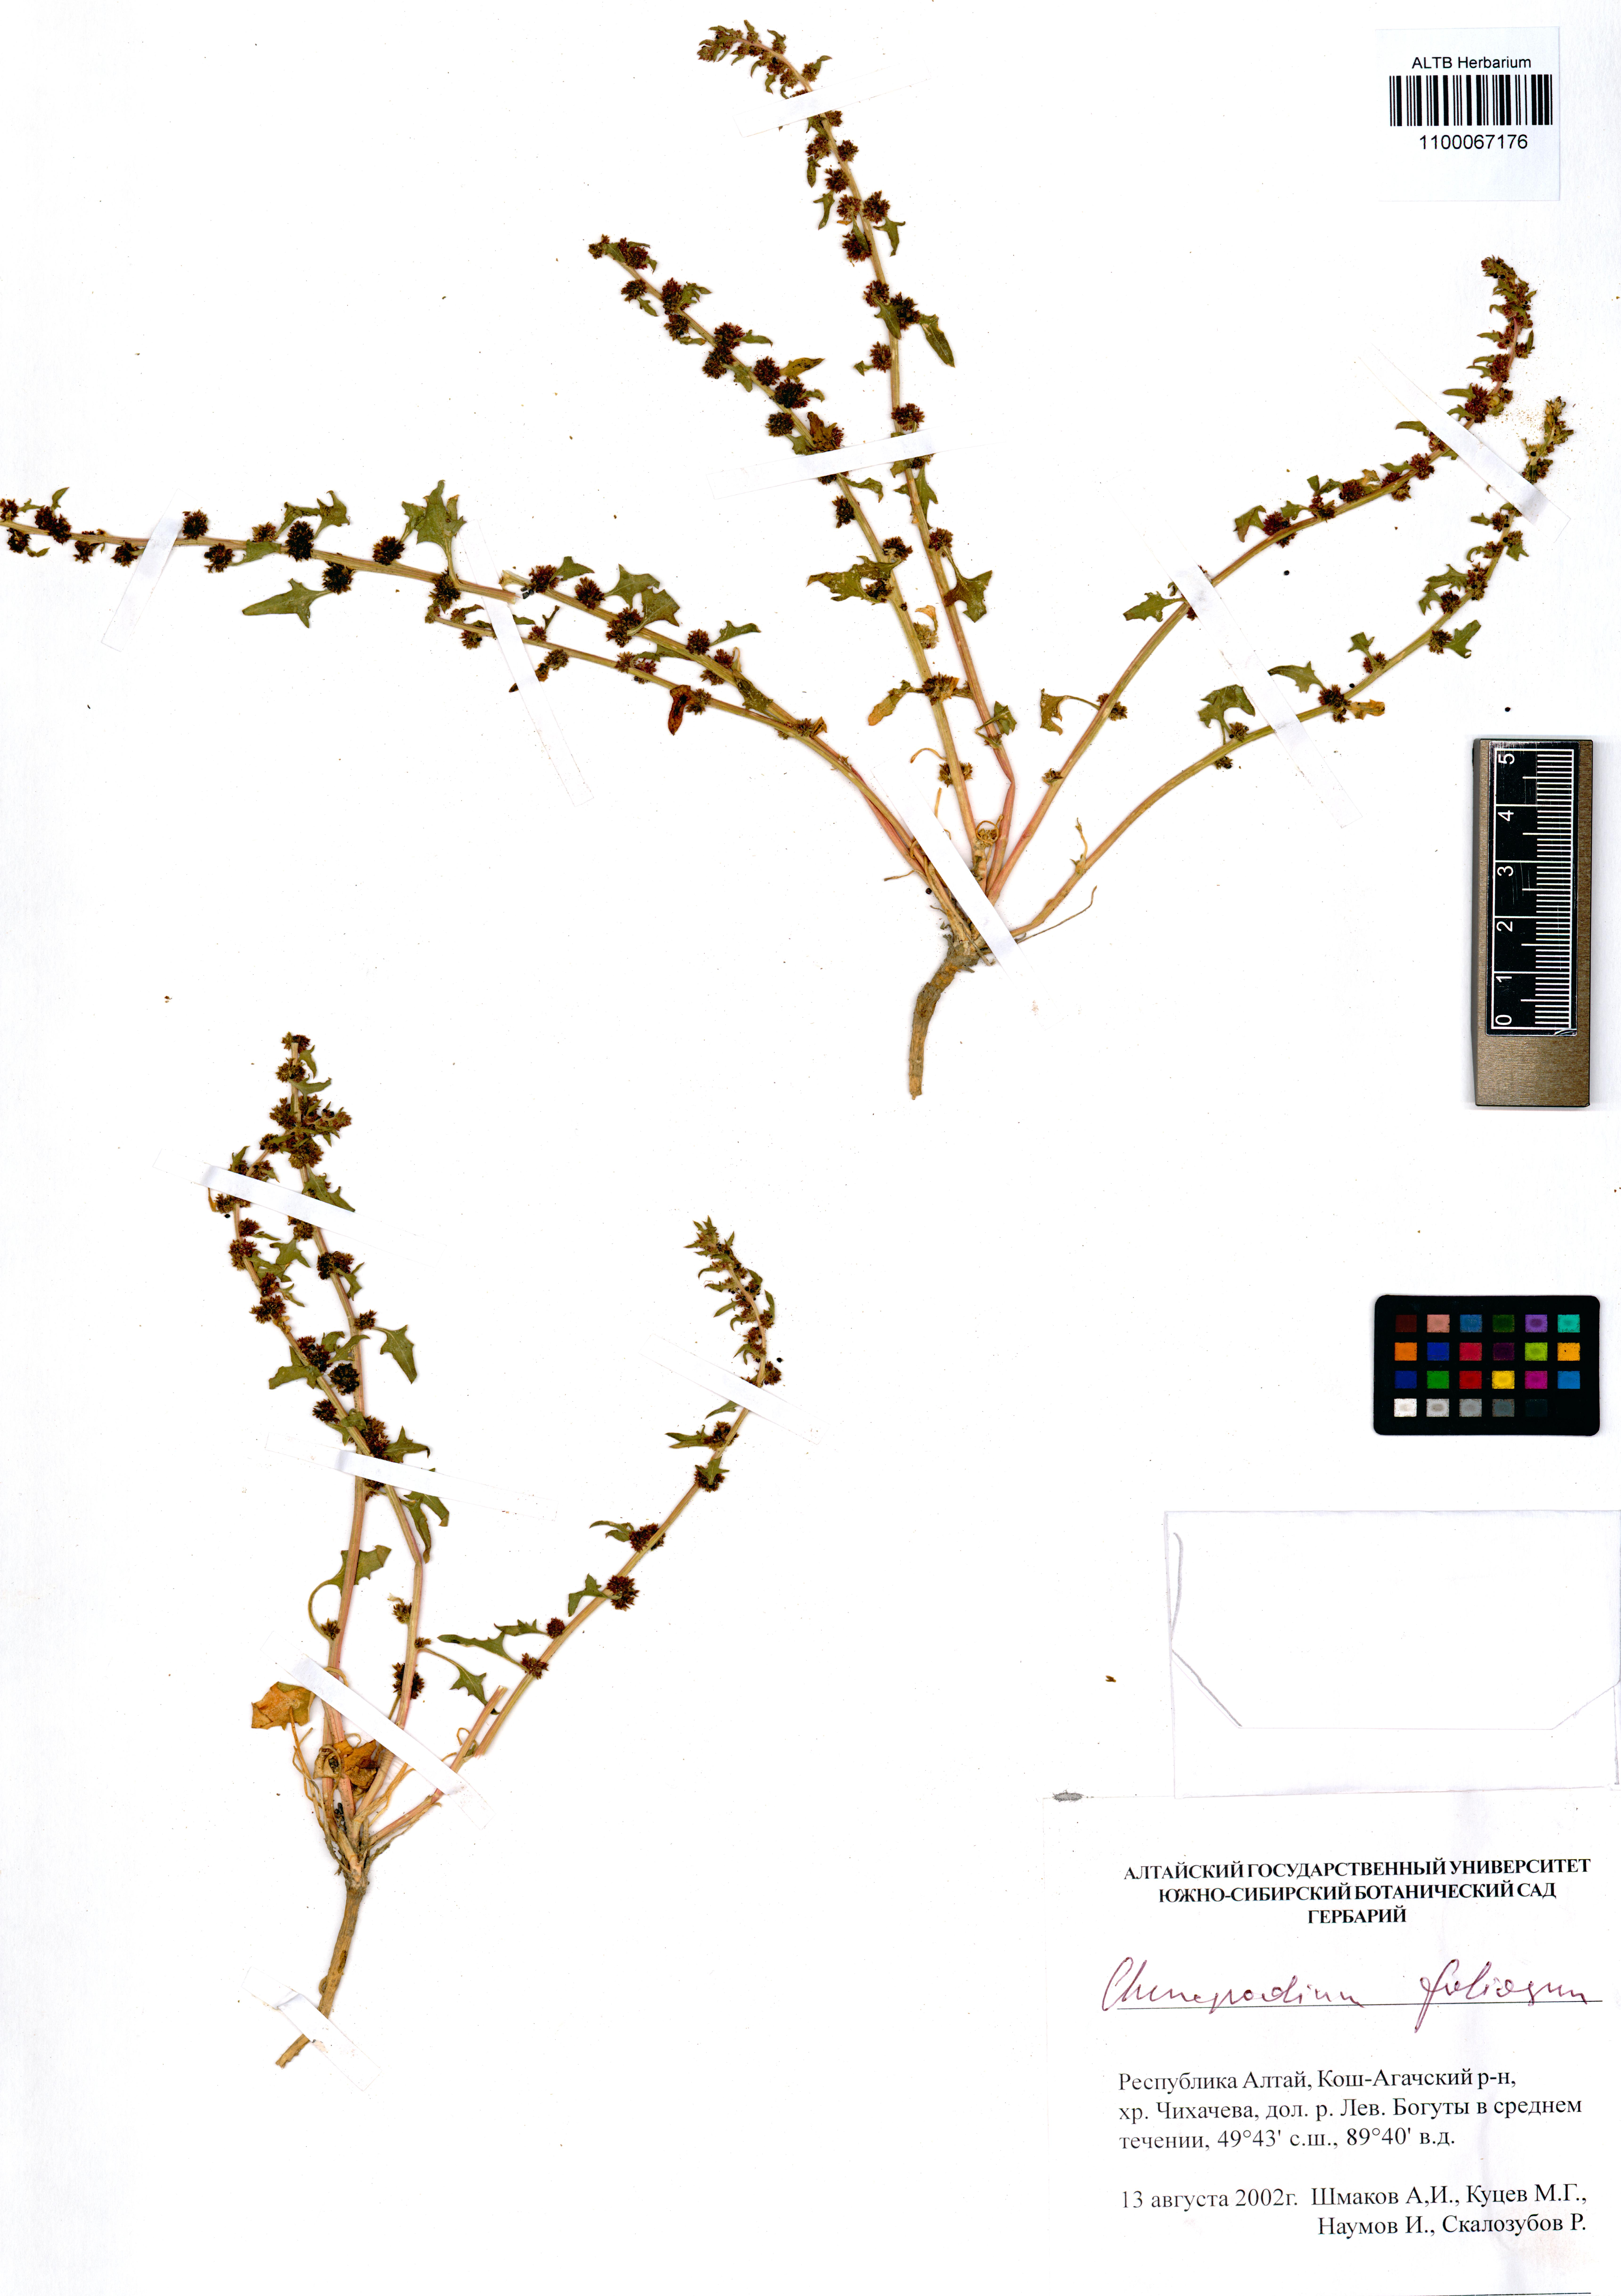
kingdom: Plantae
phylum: Tracheophyta
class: Magnoliopsida
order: Caryophyllales
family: Amaranthaceae
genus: Blitum
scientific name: Blitum virgatum
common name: Strawberry goosefoot
